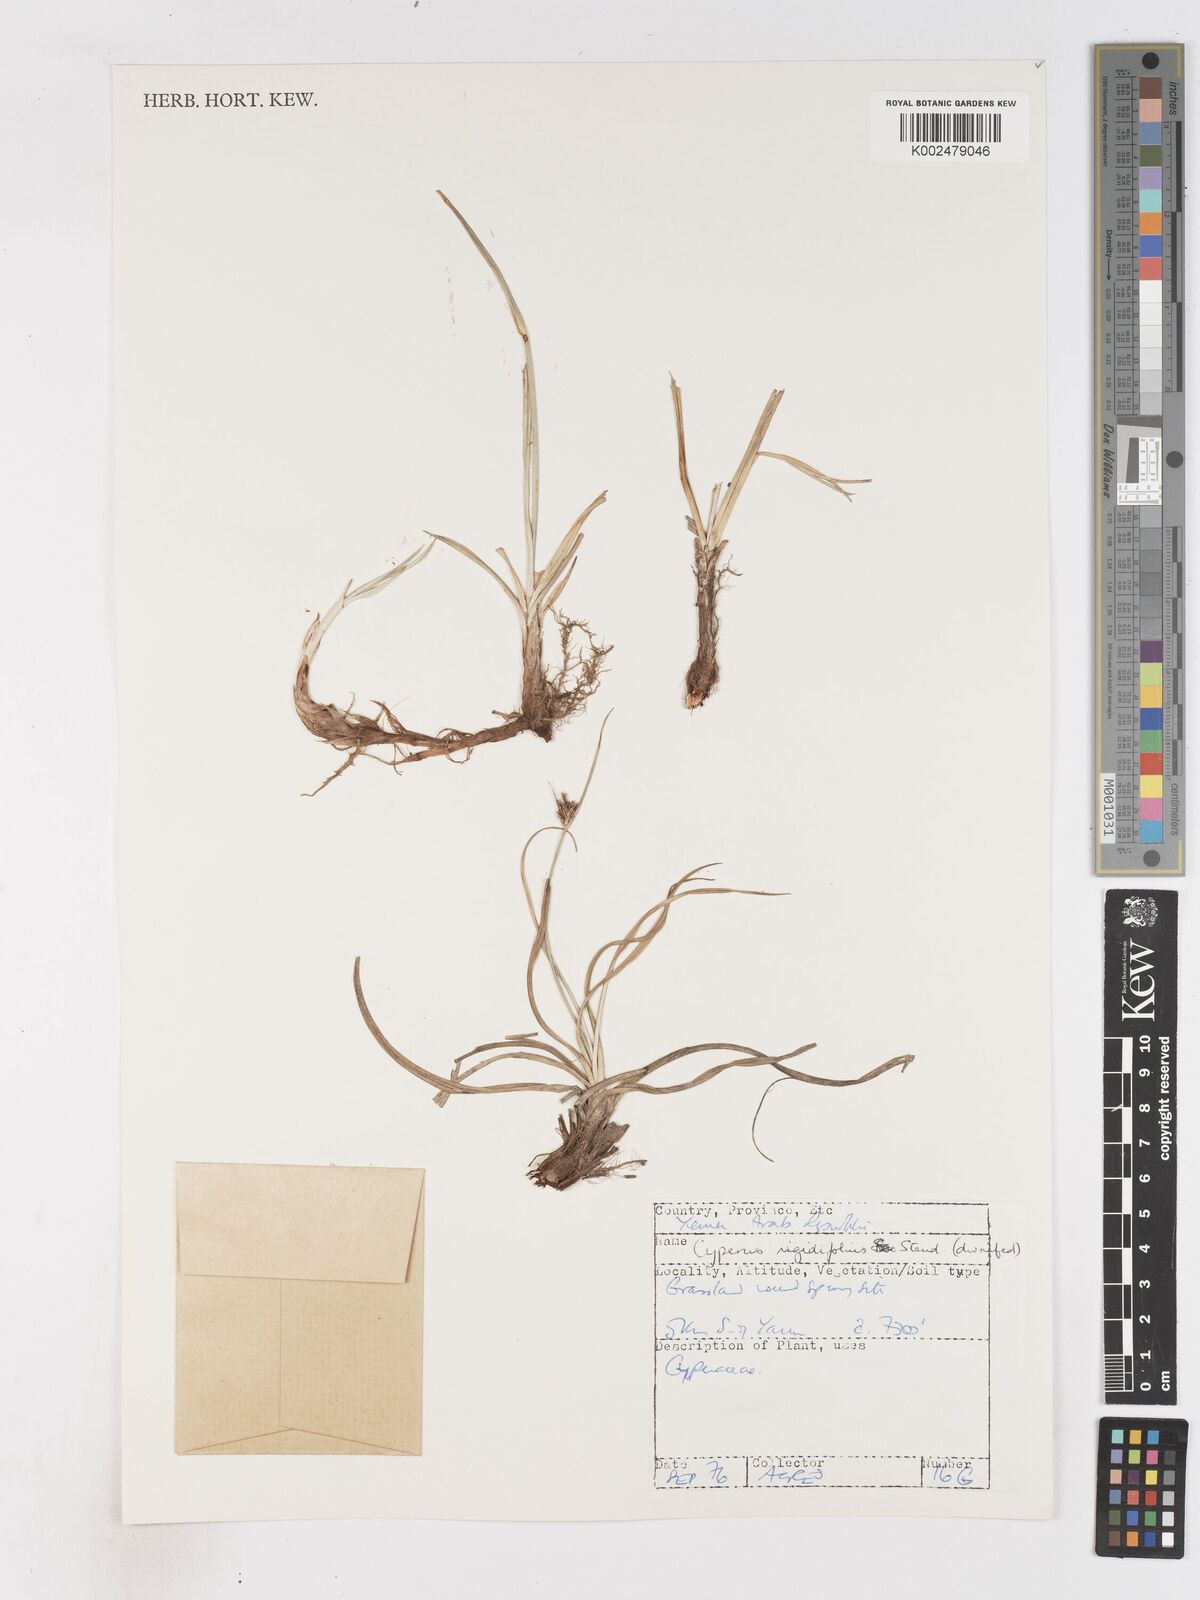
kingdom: Plantae
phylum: Tracheophyta
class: Liliopsida
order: Poales
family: Cyperaceae
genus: Cyperus
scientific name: Cyperus rigidifolius
